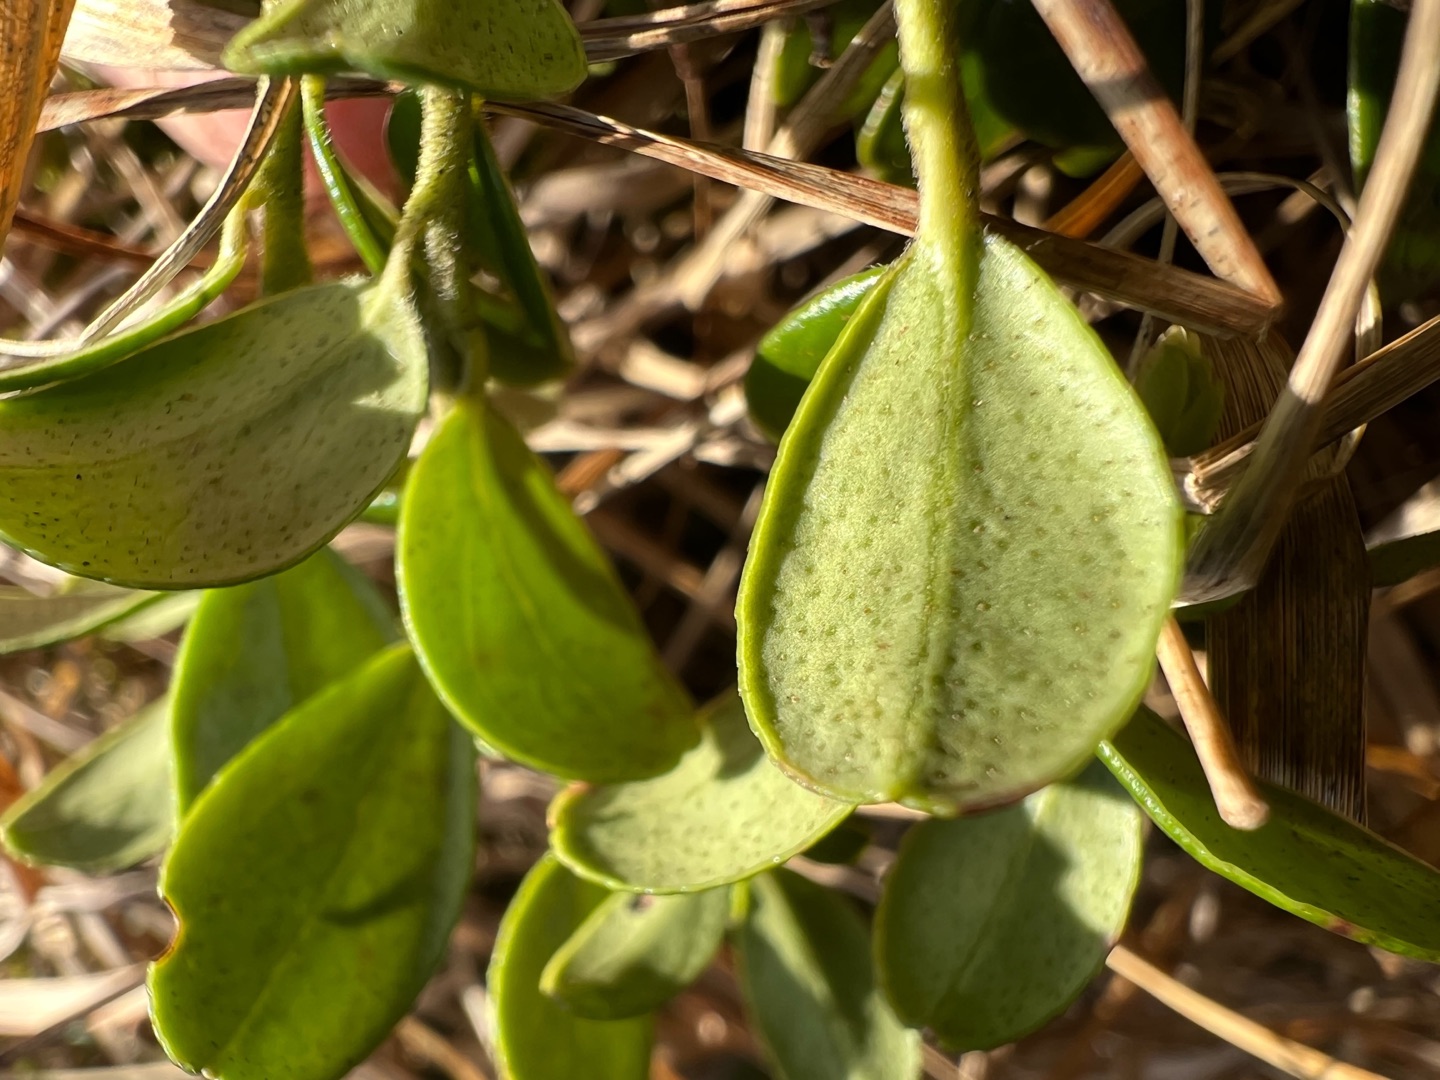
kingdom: Plantae
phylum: Tracheophyta
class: Magnoliopsida
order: Ericales
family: Ericaceae
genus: Vaccinium
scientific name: Vaccinium vitis-idaea
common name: Tyttebær
